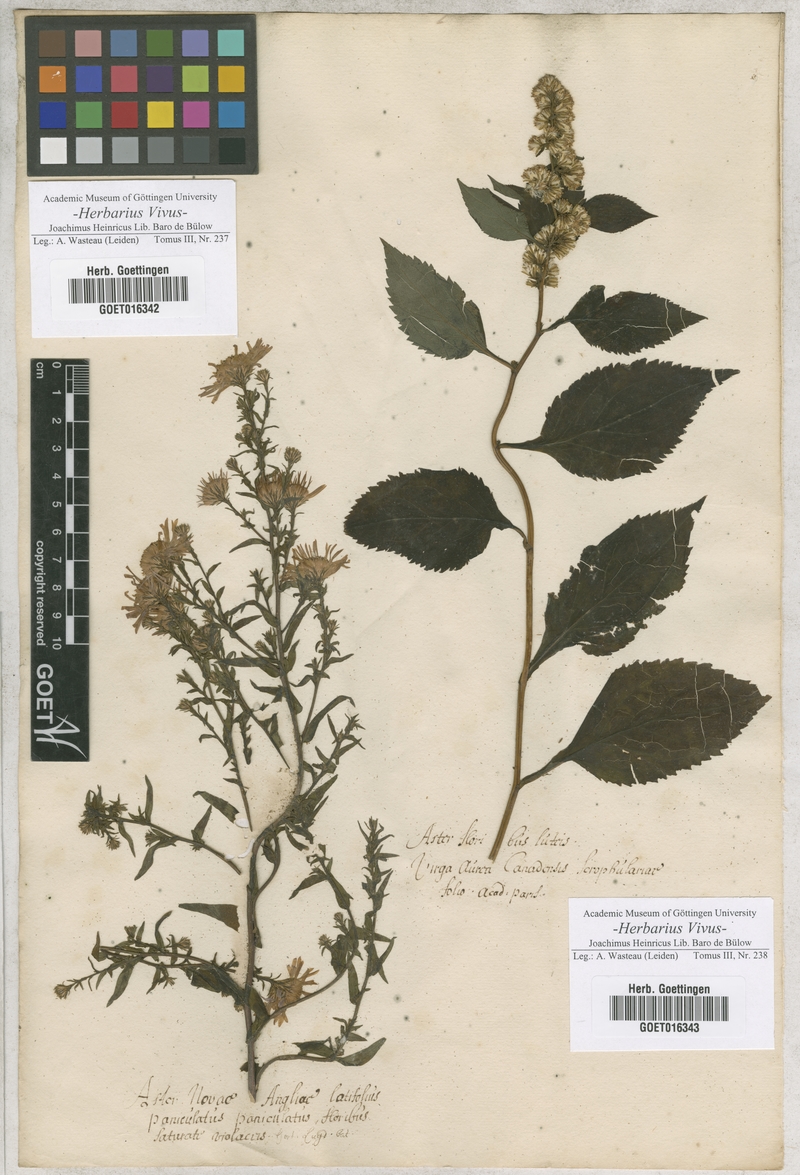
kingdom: Plantae
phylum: Tracheophyta
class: Magnoliopsida
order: Asterales
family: Asteraceae
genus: Aster
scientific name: Aster
